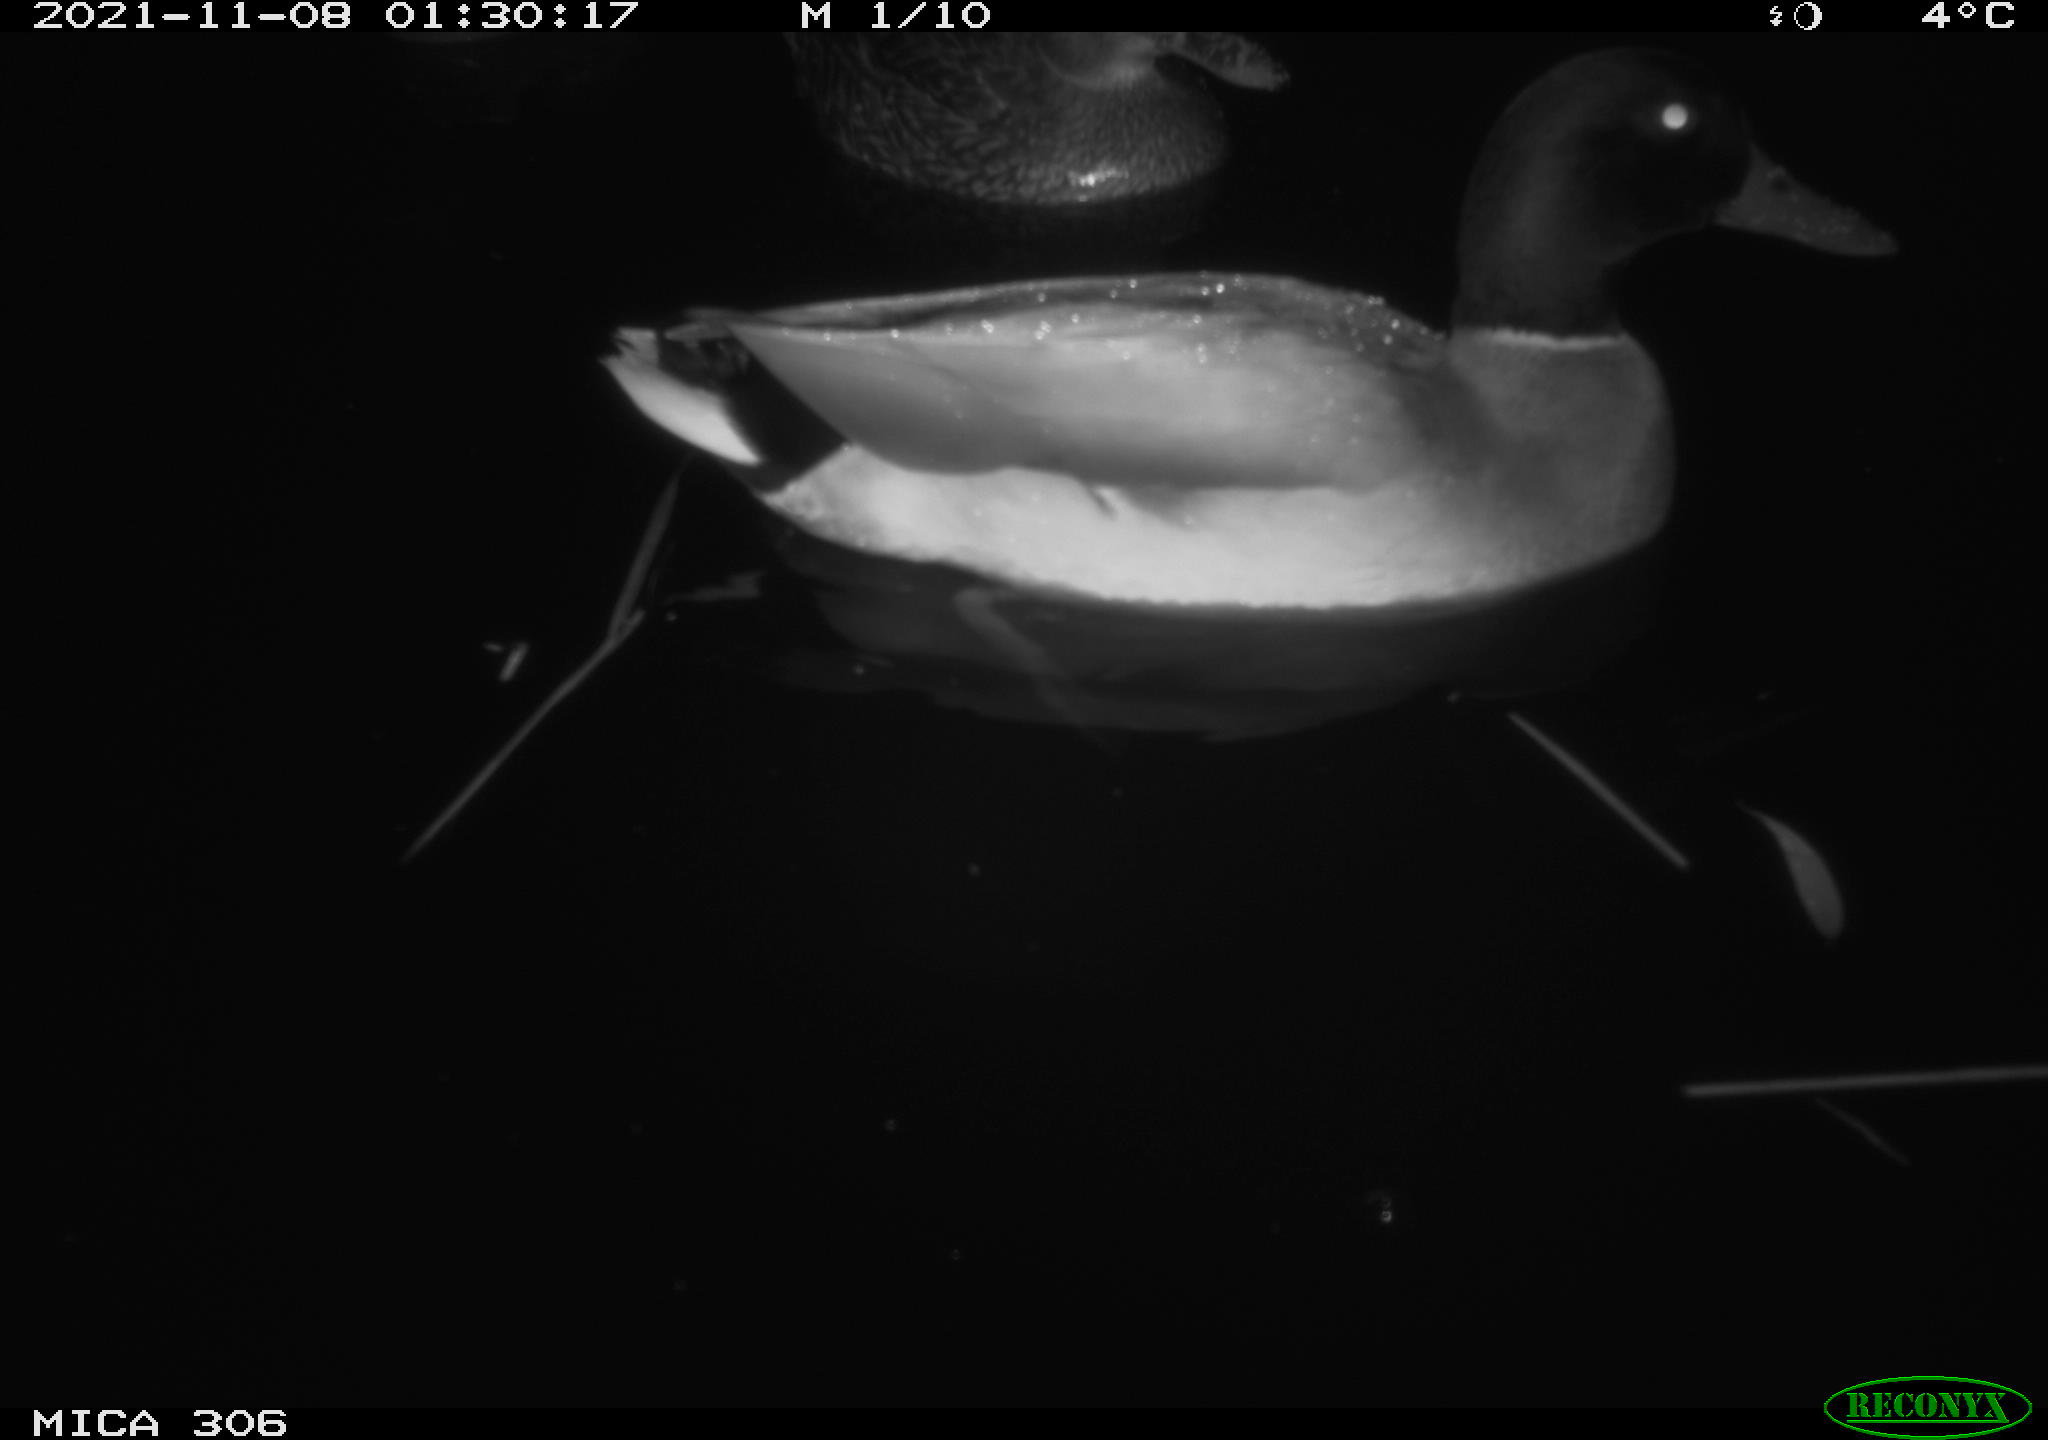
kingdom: Animalia
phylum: Chordata
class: Aves
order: Anseriformes
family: Anatidae
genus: Anas
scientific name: Anas platyrhynchos
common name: Mallard
